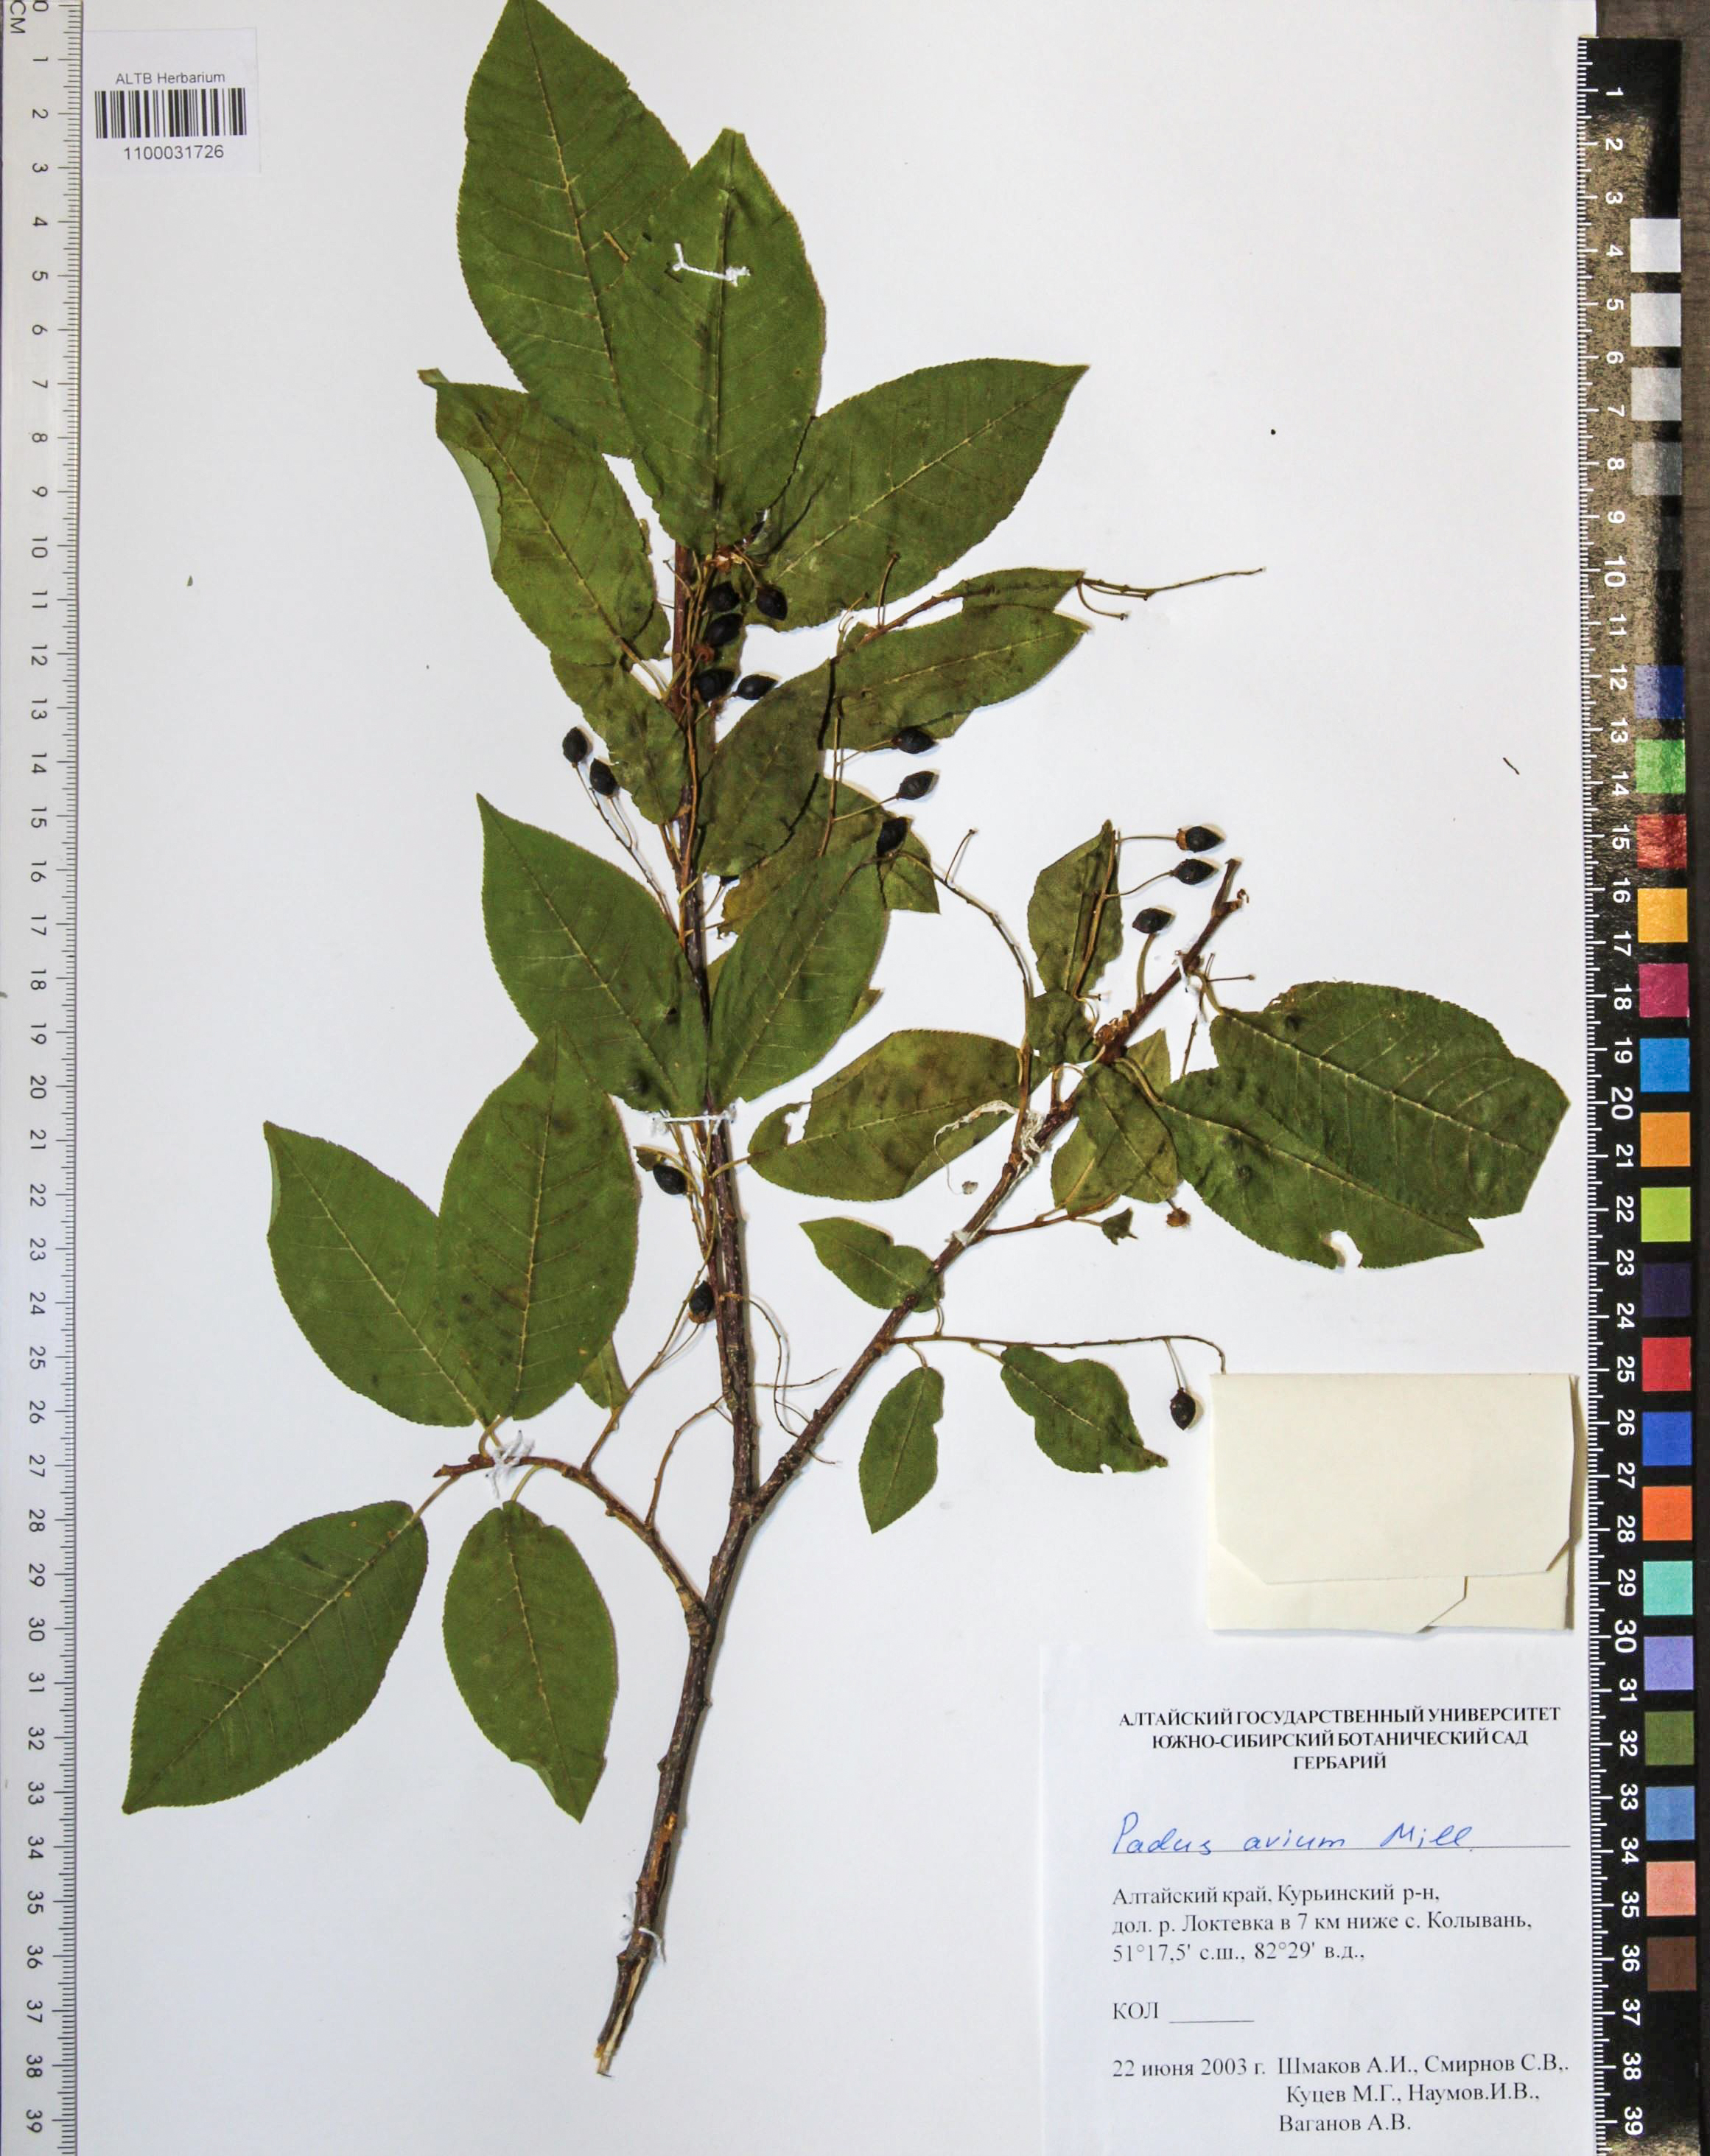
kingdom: Plantae
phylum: Tracheophyta
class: Magnoliopsida
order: Rosales
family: Rosaceae
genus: Prunus
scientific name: Prunus padus
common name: Bird cherry
